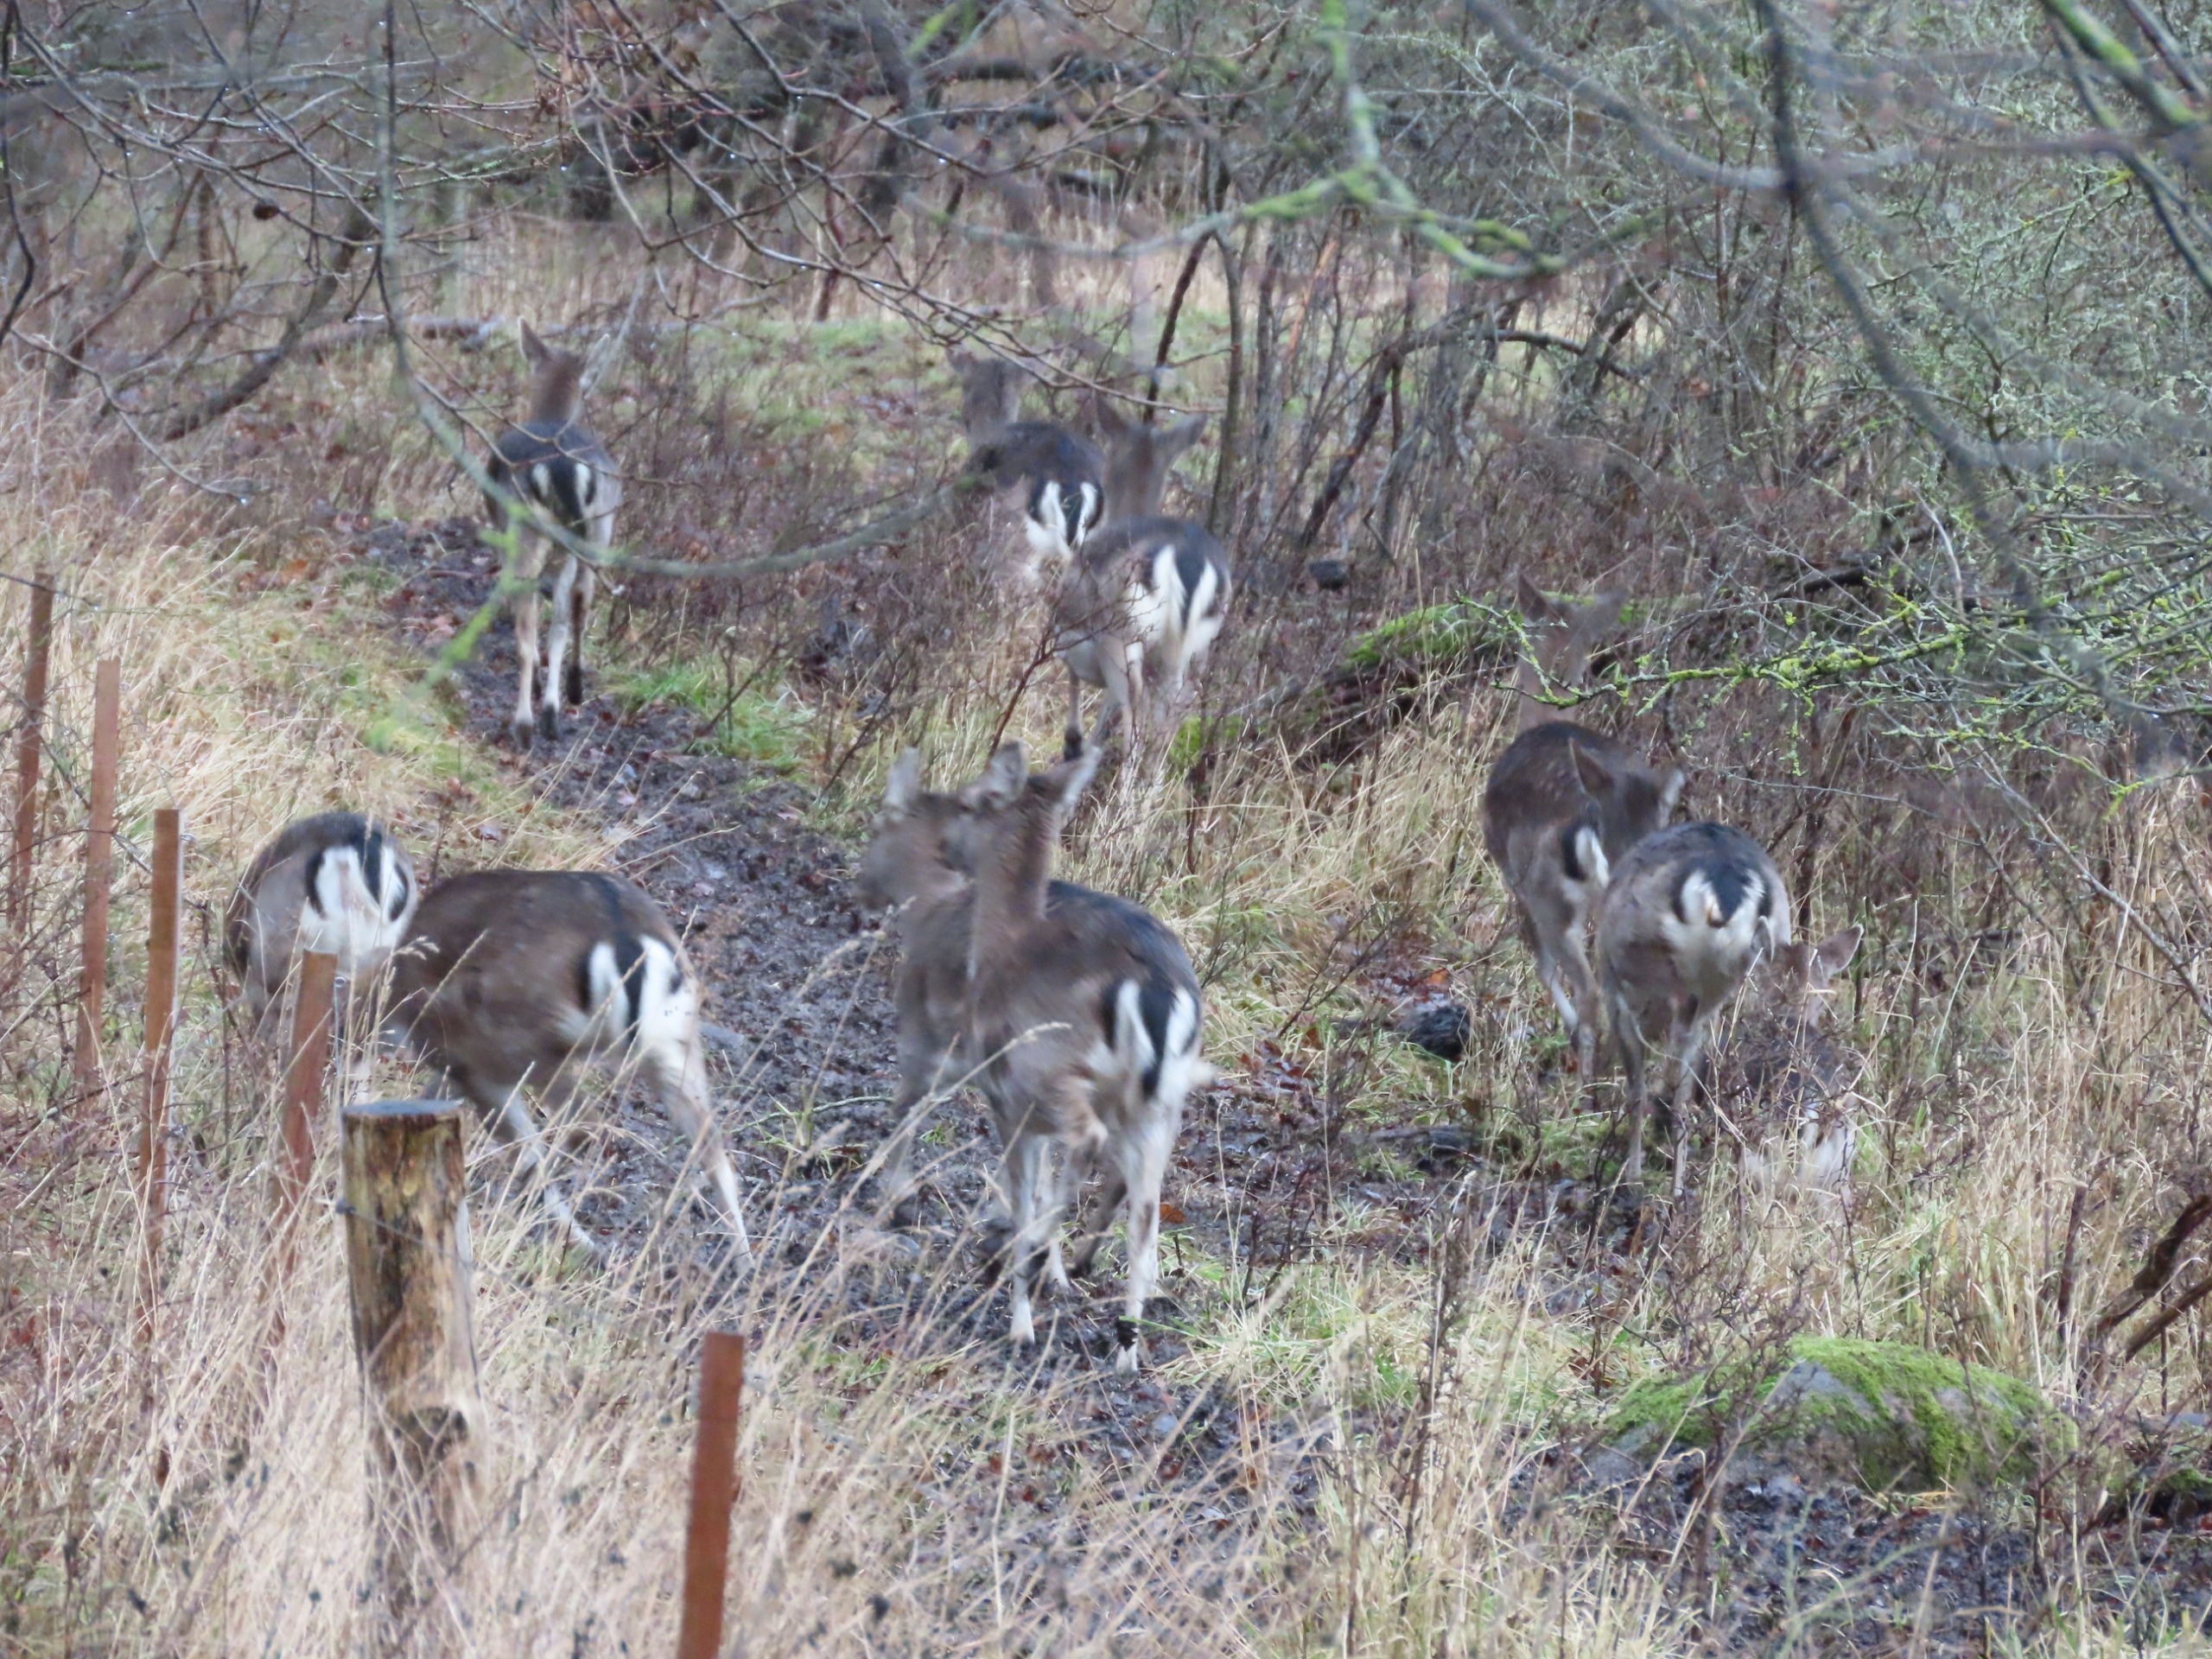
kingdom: Animalia
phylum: Chordata
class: Mammalia
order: Artiodactyla
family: Cervidae
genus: Dama
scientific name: Dama dama
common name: Dådyr
